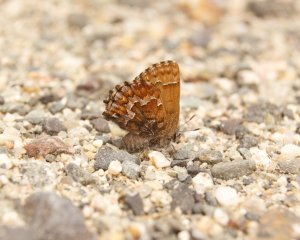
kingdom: Animalia
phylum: Arthropoda
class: Insecta
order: Lepidoptera
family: Lycaenidae
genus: Incisalia
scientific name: Incisalia niphon
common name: Eastern Pine Elfin
